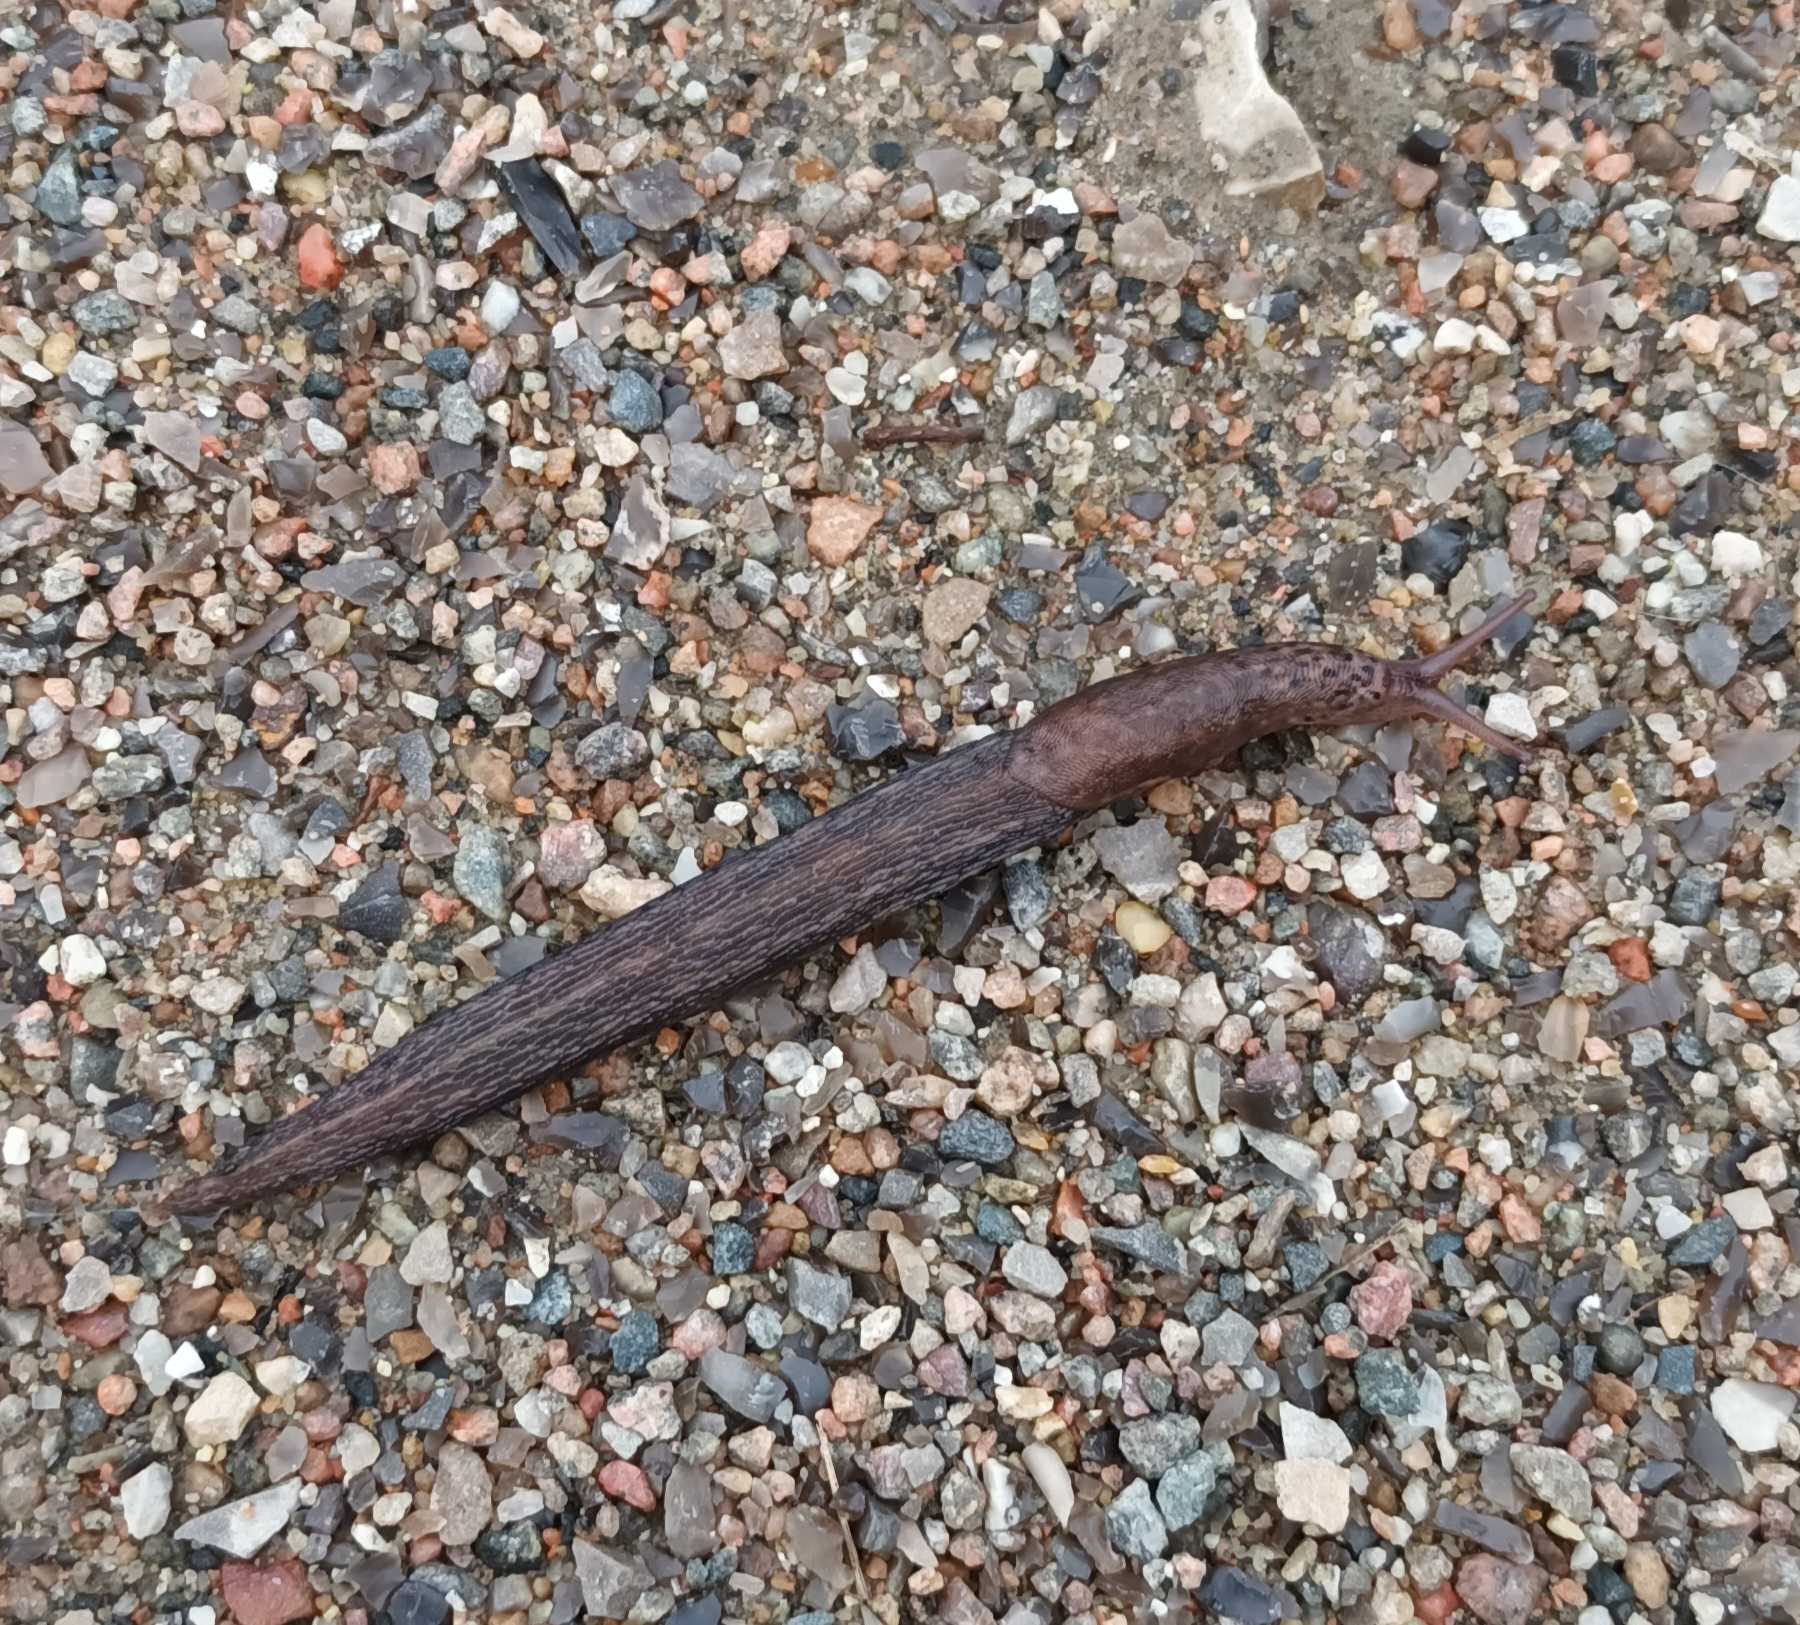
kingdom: Animalia
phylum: Mollusca
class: Gastropoda
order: Stylommatophora
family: Limacidae
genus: Limax
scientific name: Limax maximus
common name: Pantersnegl
